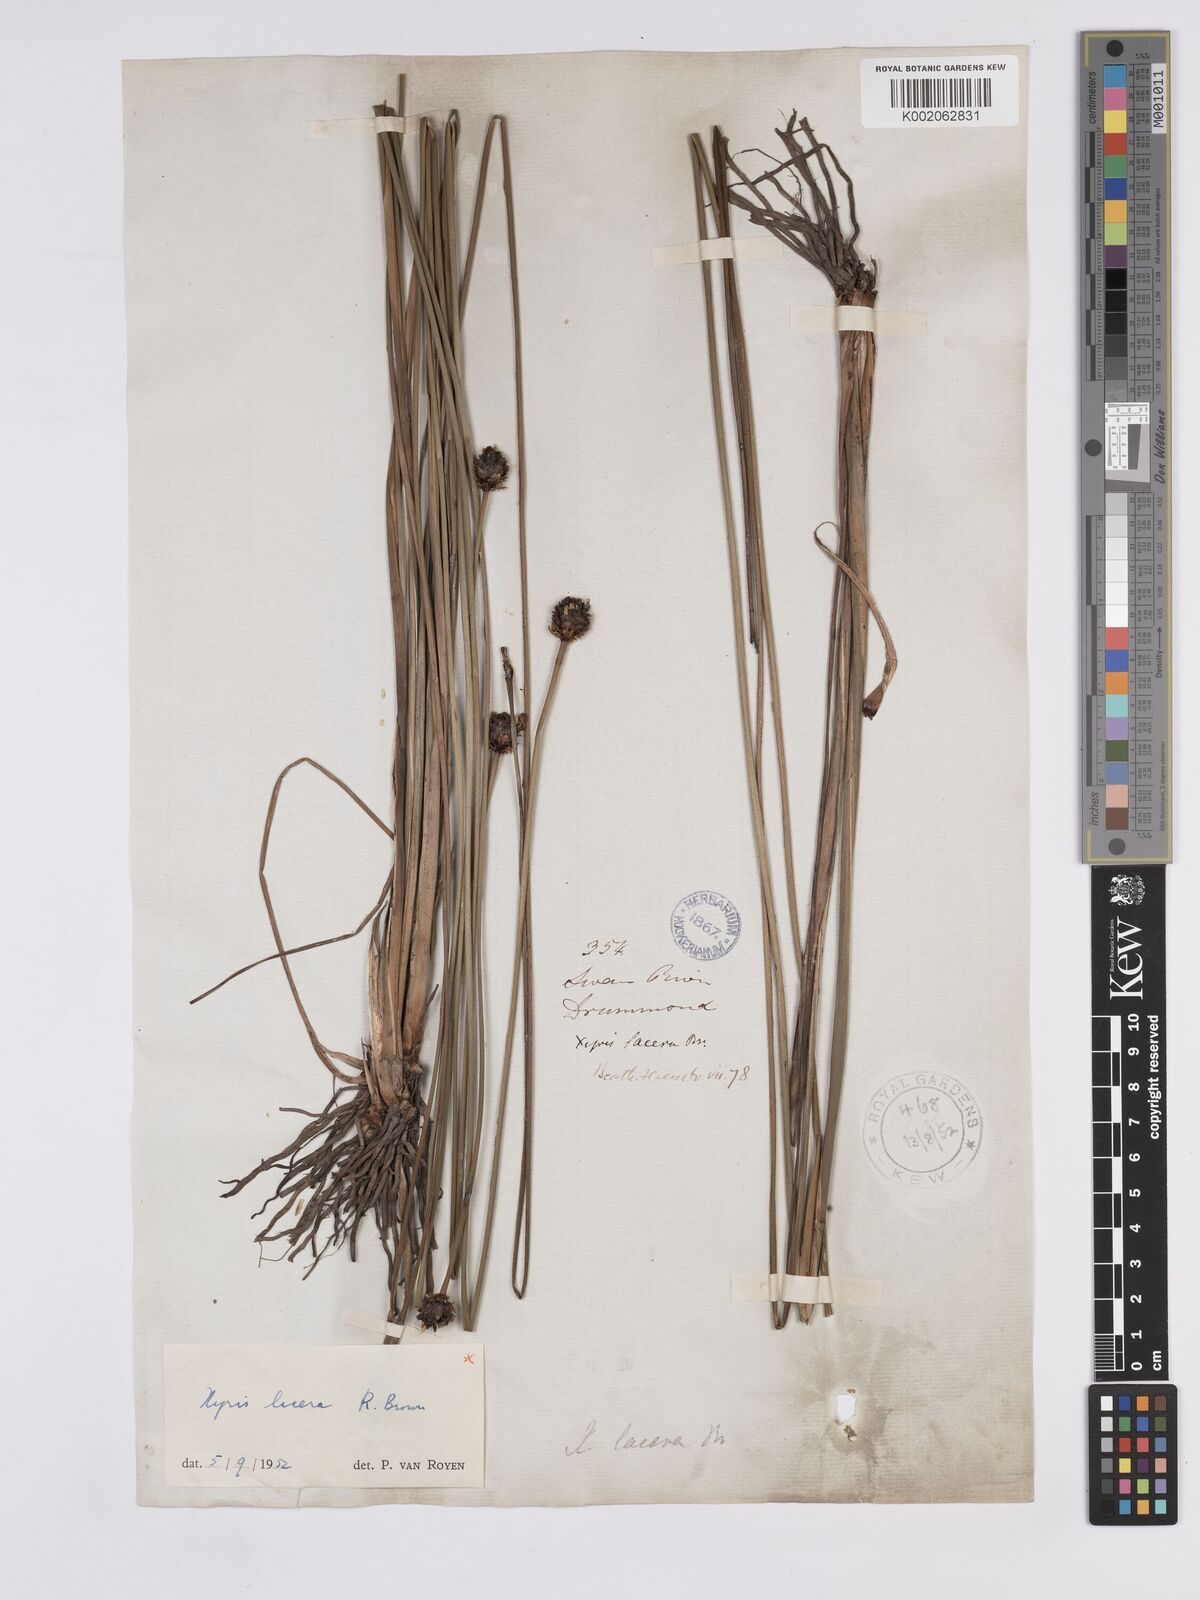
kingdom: Plantae
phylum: Tracheophyta
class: Liliopsida
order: Poales
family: Xyridaceae
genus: Xyris
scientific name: Xyris lacera
